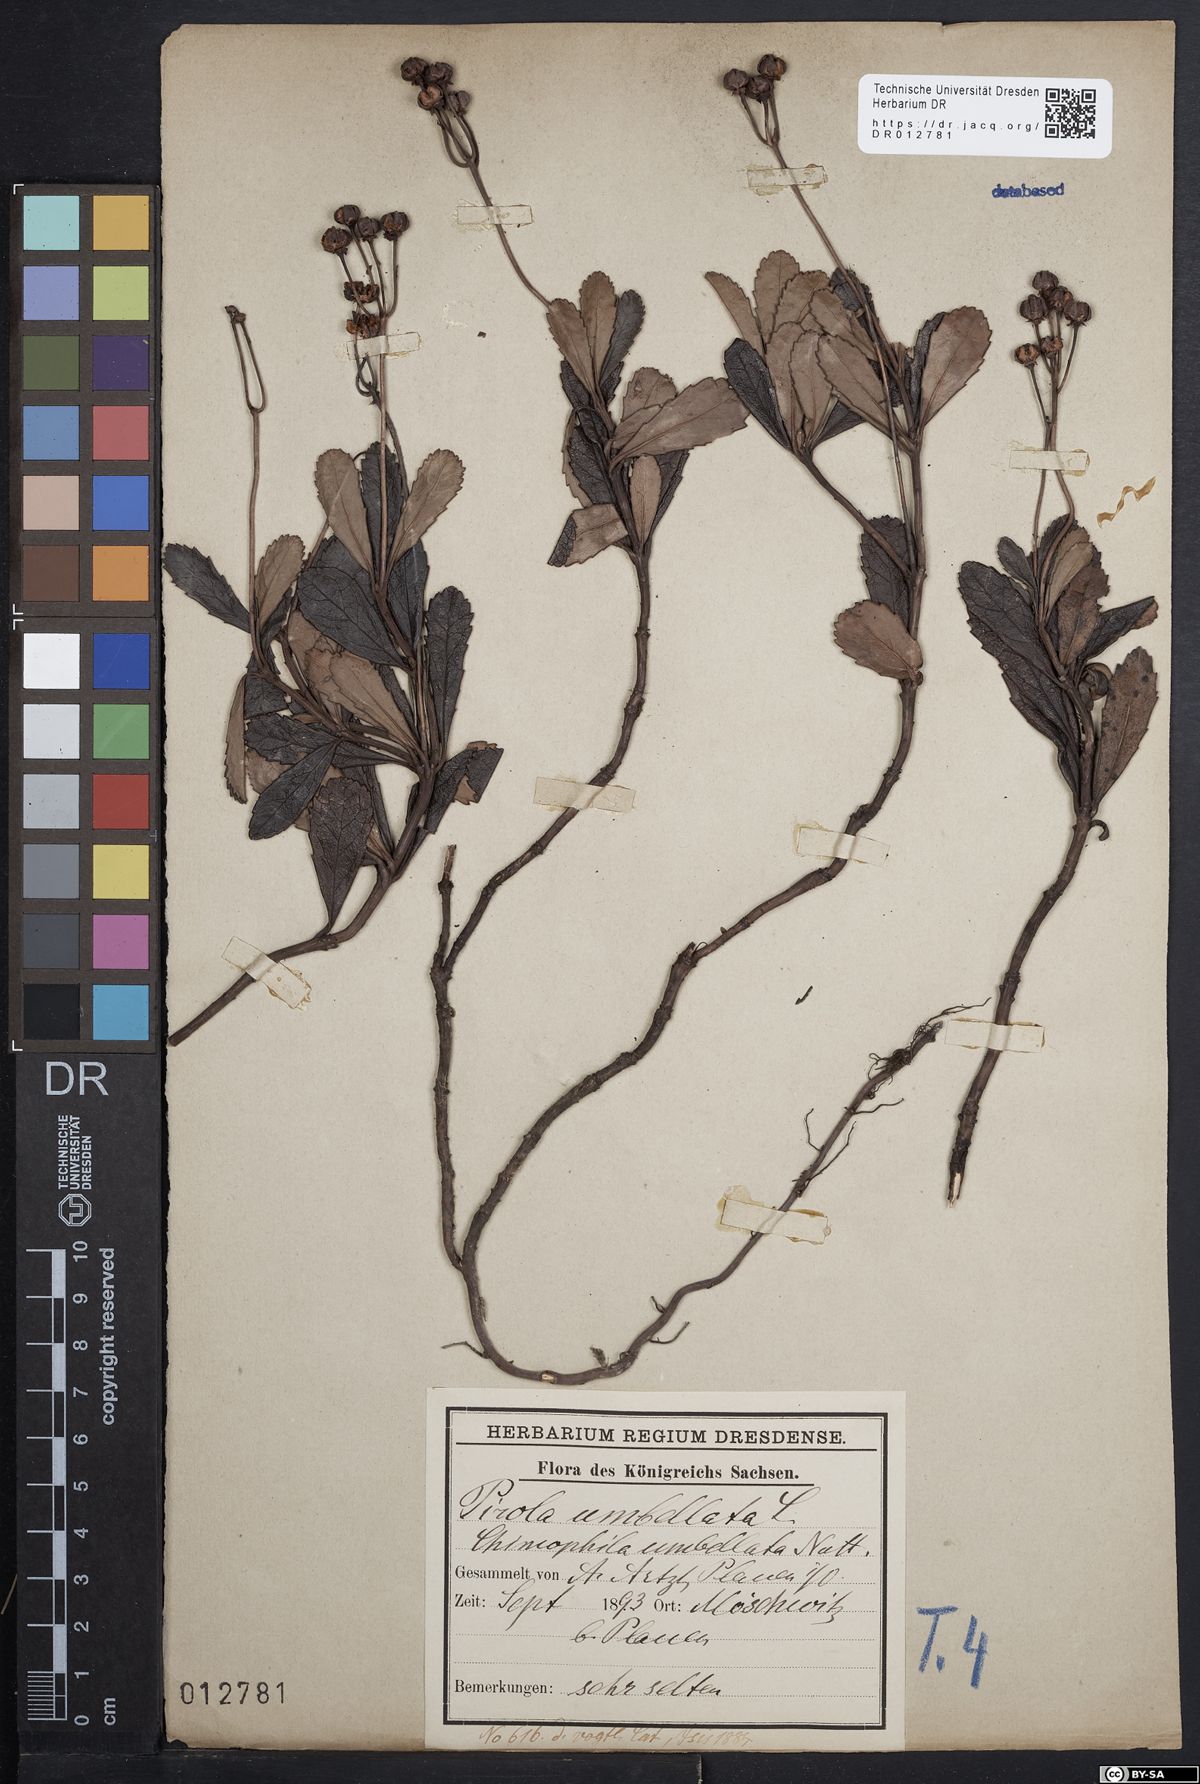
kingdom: Plantae
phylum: Tracheophyta
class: Magnoliopsida
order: Ericales
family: Ericaceae
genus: Chimaphila
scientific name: Chimaphila umbellata
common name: Pipsissewa
